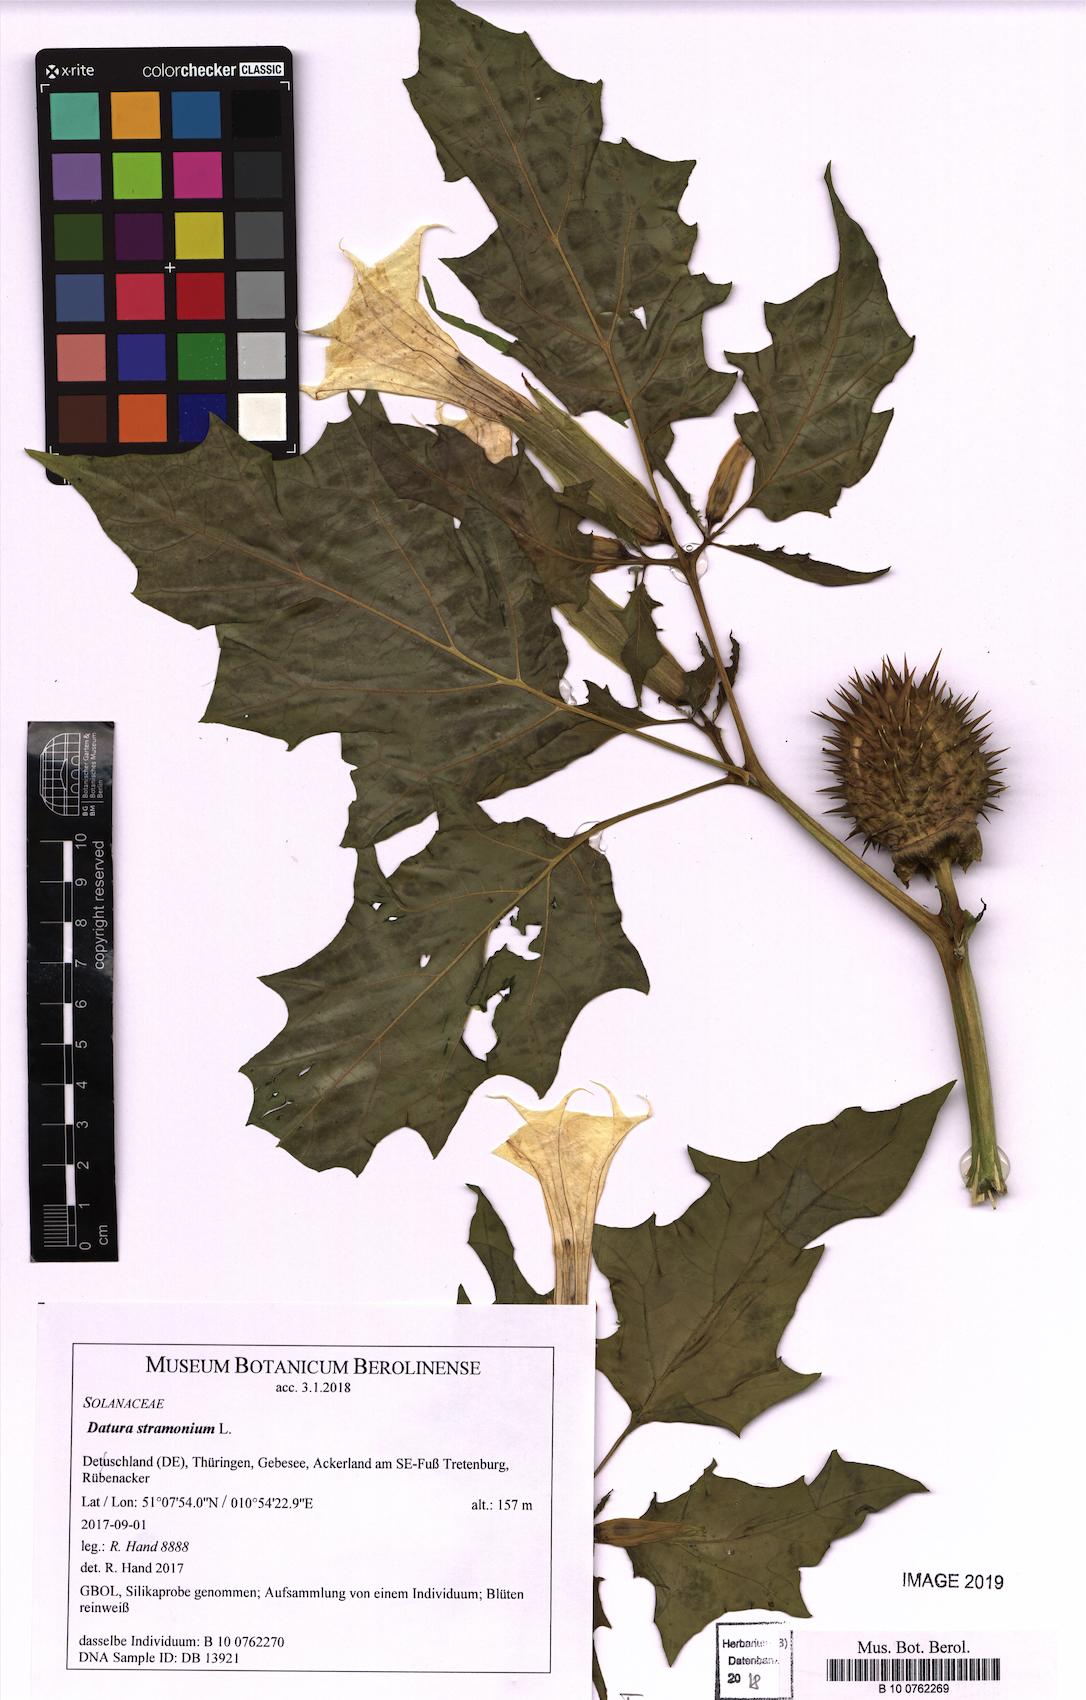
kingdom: Plantae
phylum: Tracheophyta
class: Magnoliopsida
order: Solanales
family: Solanaceae
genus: Datura
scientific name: Datura stramonium
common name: Thorn-apple
